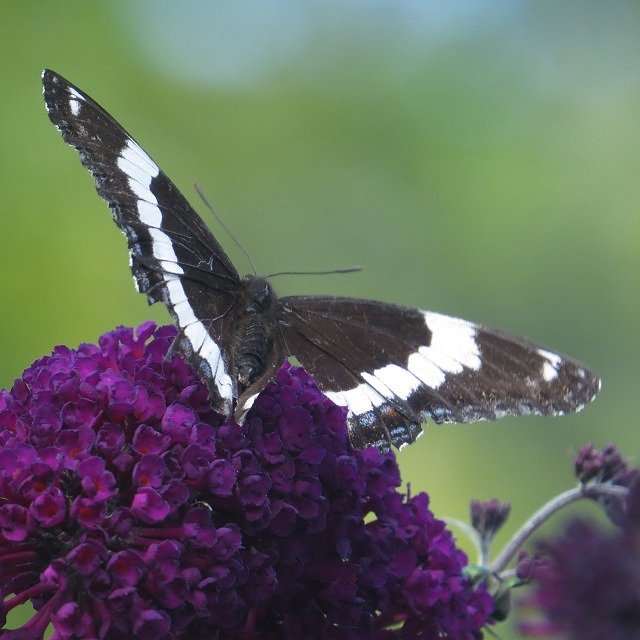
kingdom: Animalia
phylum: Arthropoda
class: Insecta
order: Lepidoptera
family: Nymphalidae
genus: Limenitis
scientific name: Limenitis arthemis
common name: Red-spotted Admiral
